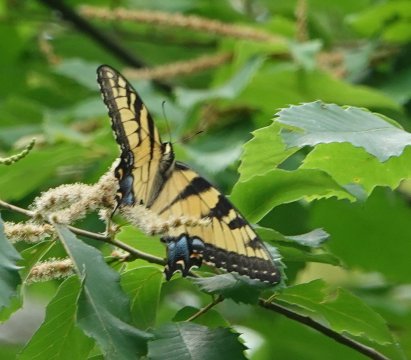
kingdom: Animalia
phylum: Arthropoda
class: Insecta
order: Lepidoptera
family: Papilionidae
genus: Pterourus
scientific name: Pterourus glaucus
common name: Eastern Tiger Swallowtail
